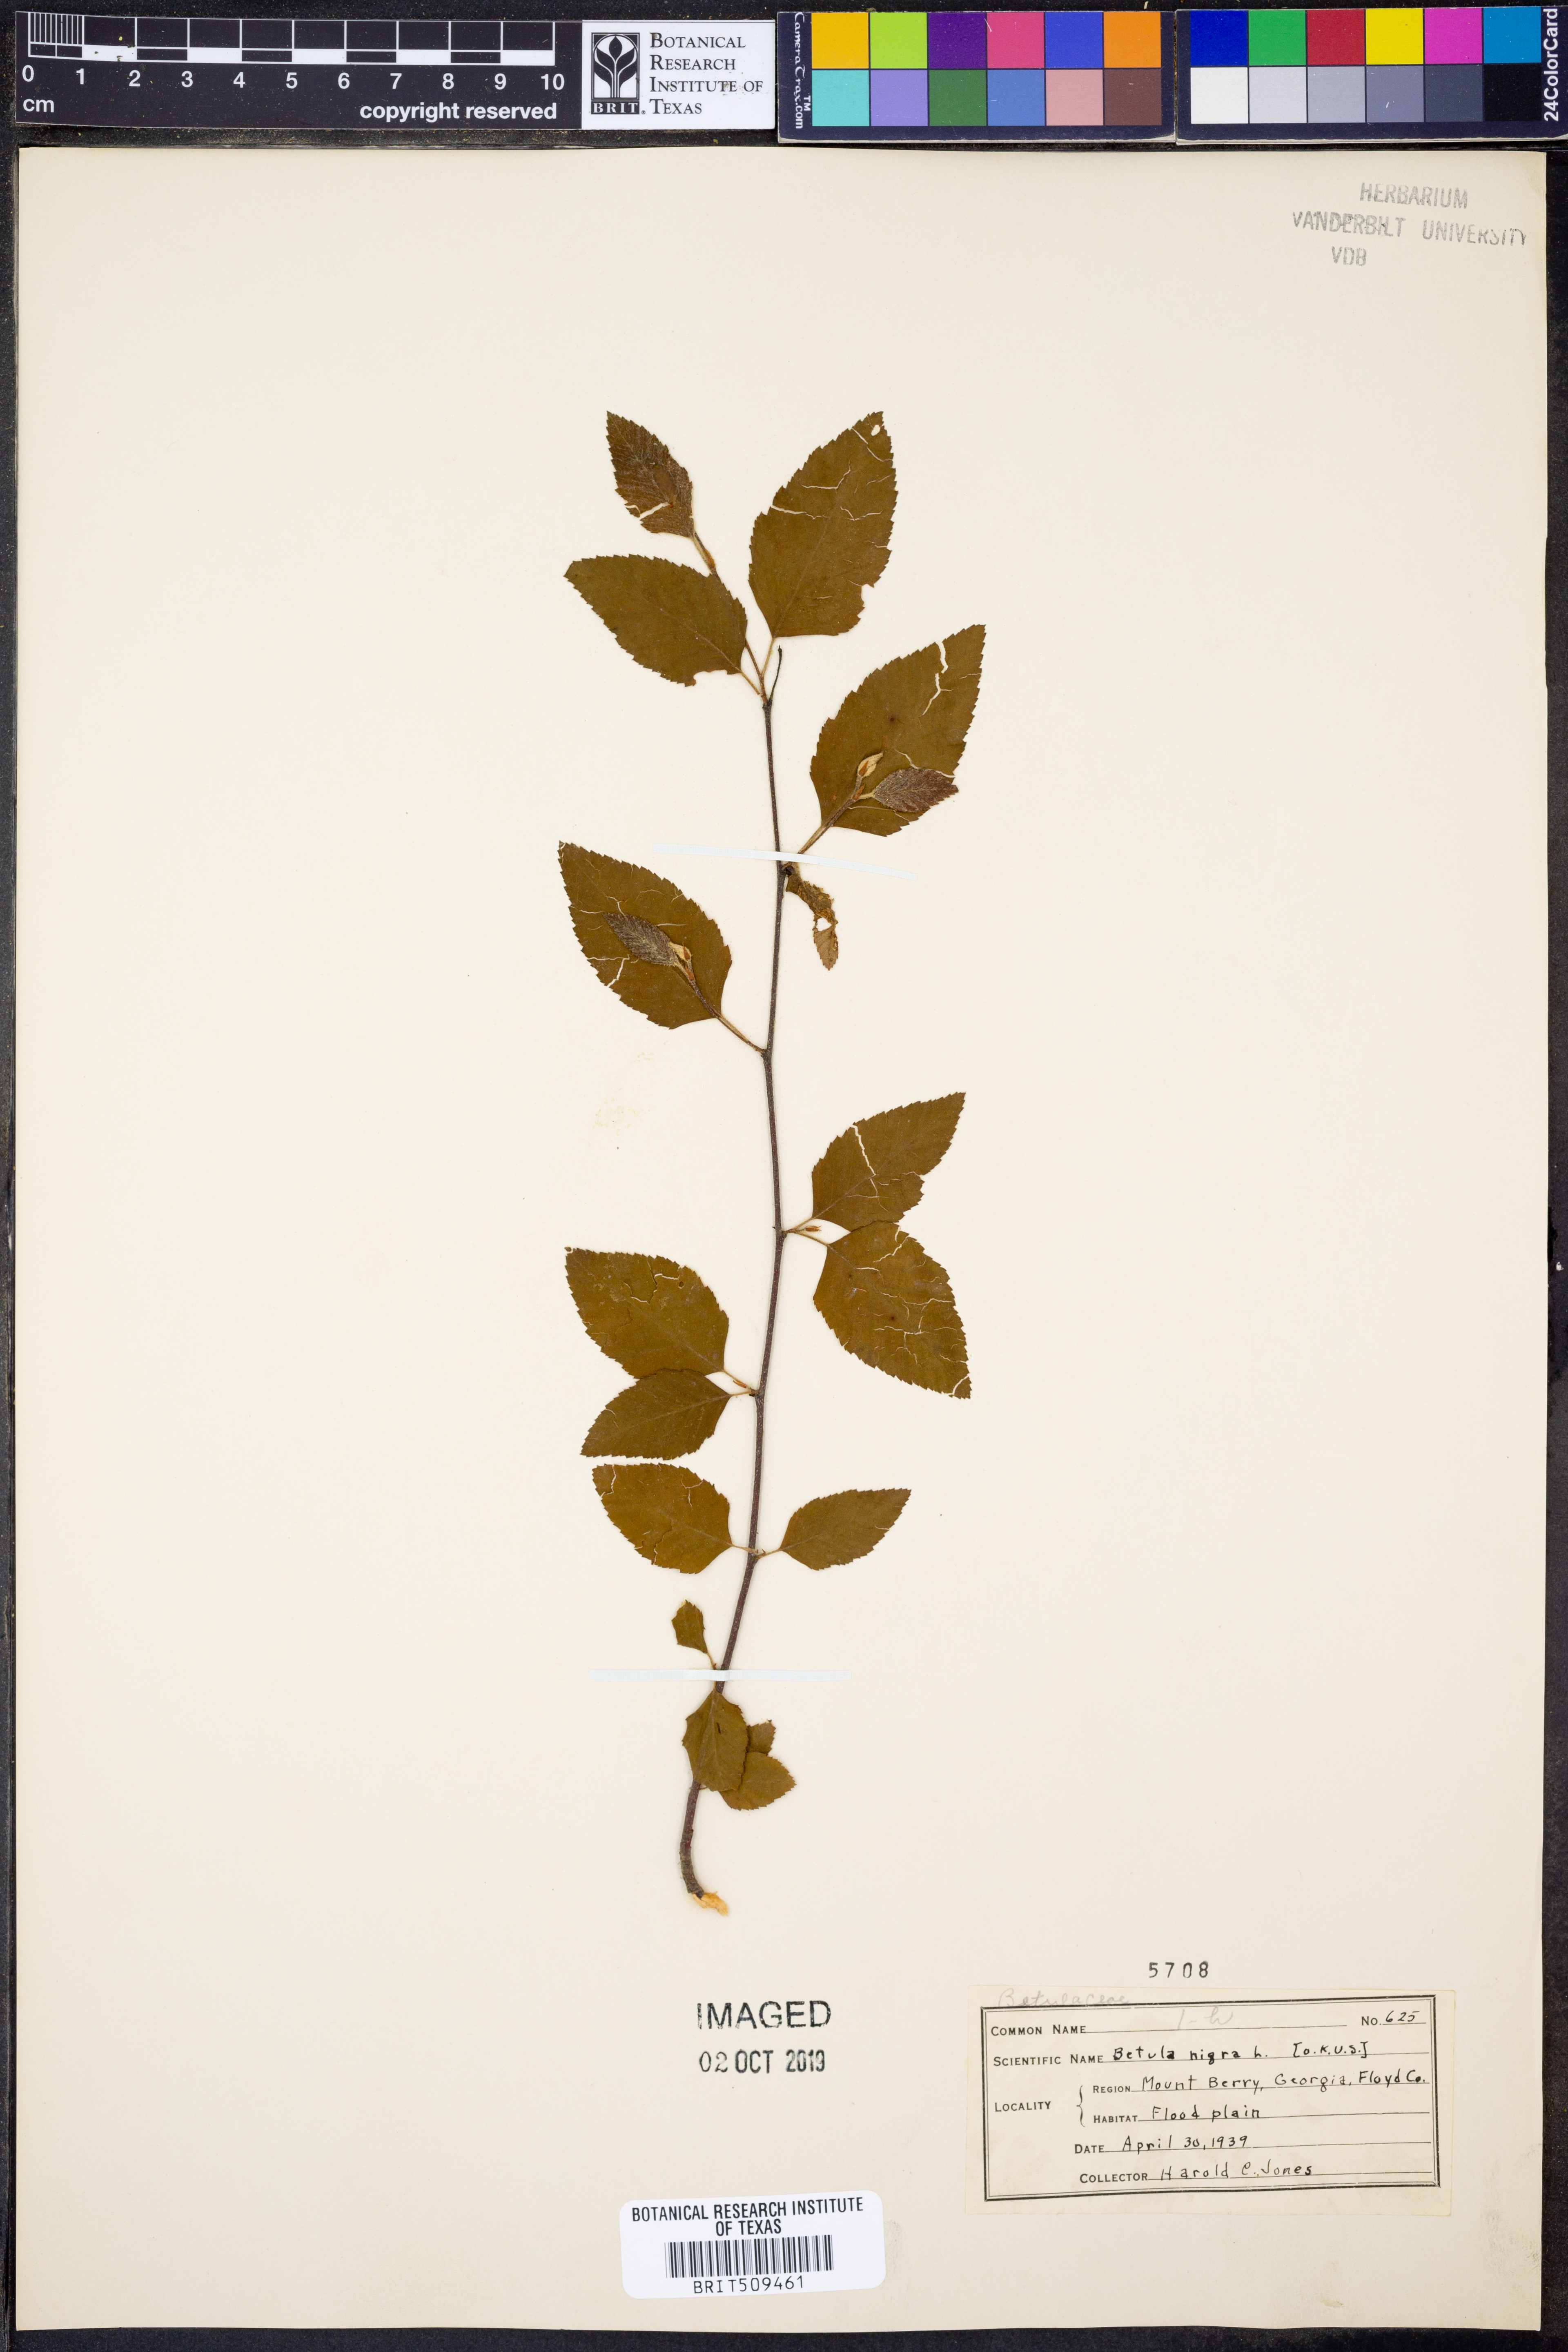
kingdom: Plantae
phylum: Tracheophyta
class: Magnoliopsida
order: Fagales
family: Betulaceae
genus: Betula
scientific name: Betula nigra
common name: Black birch
